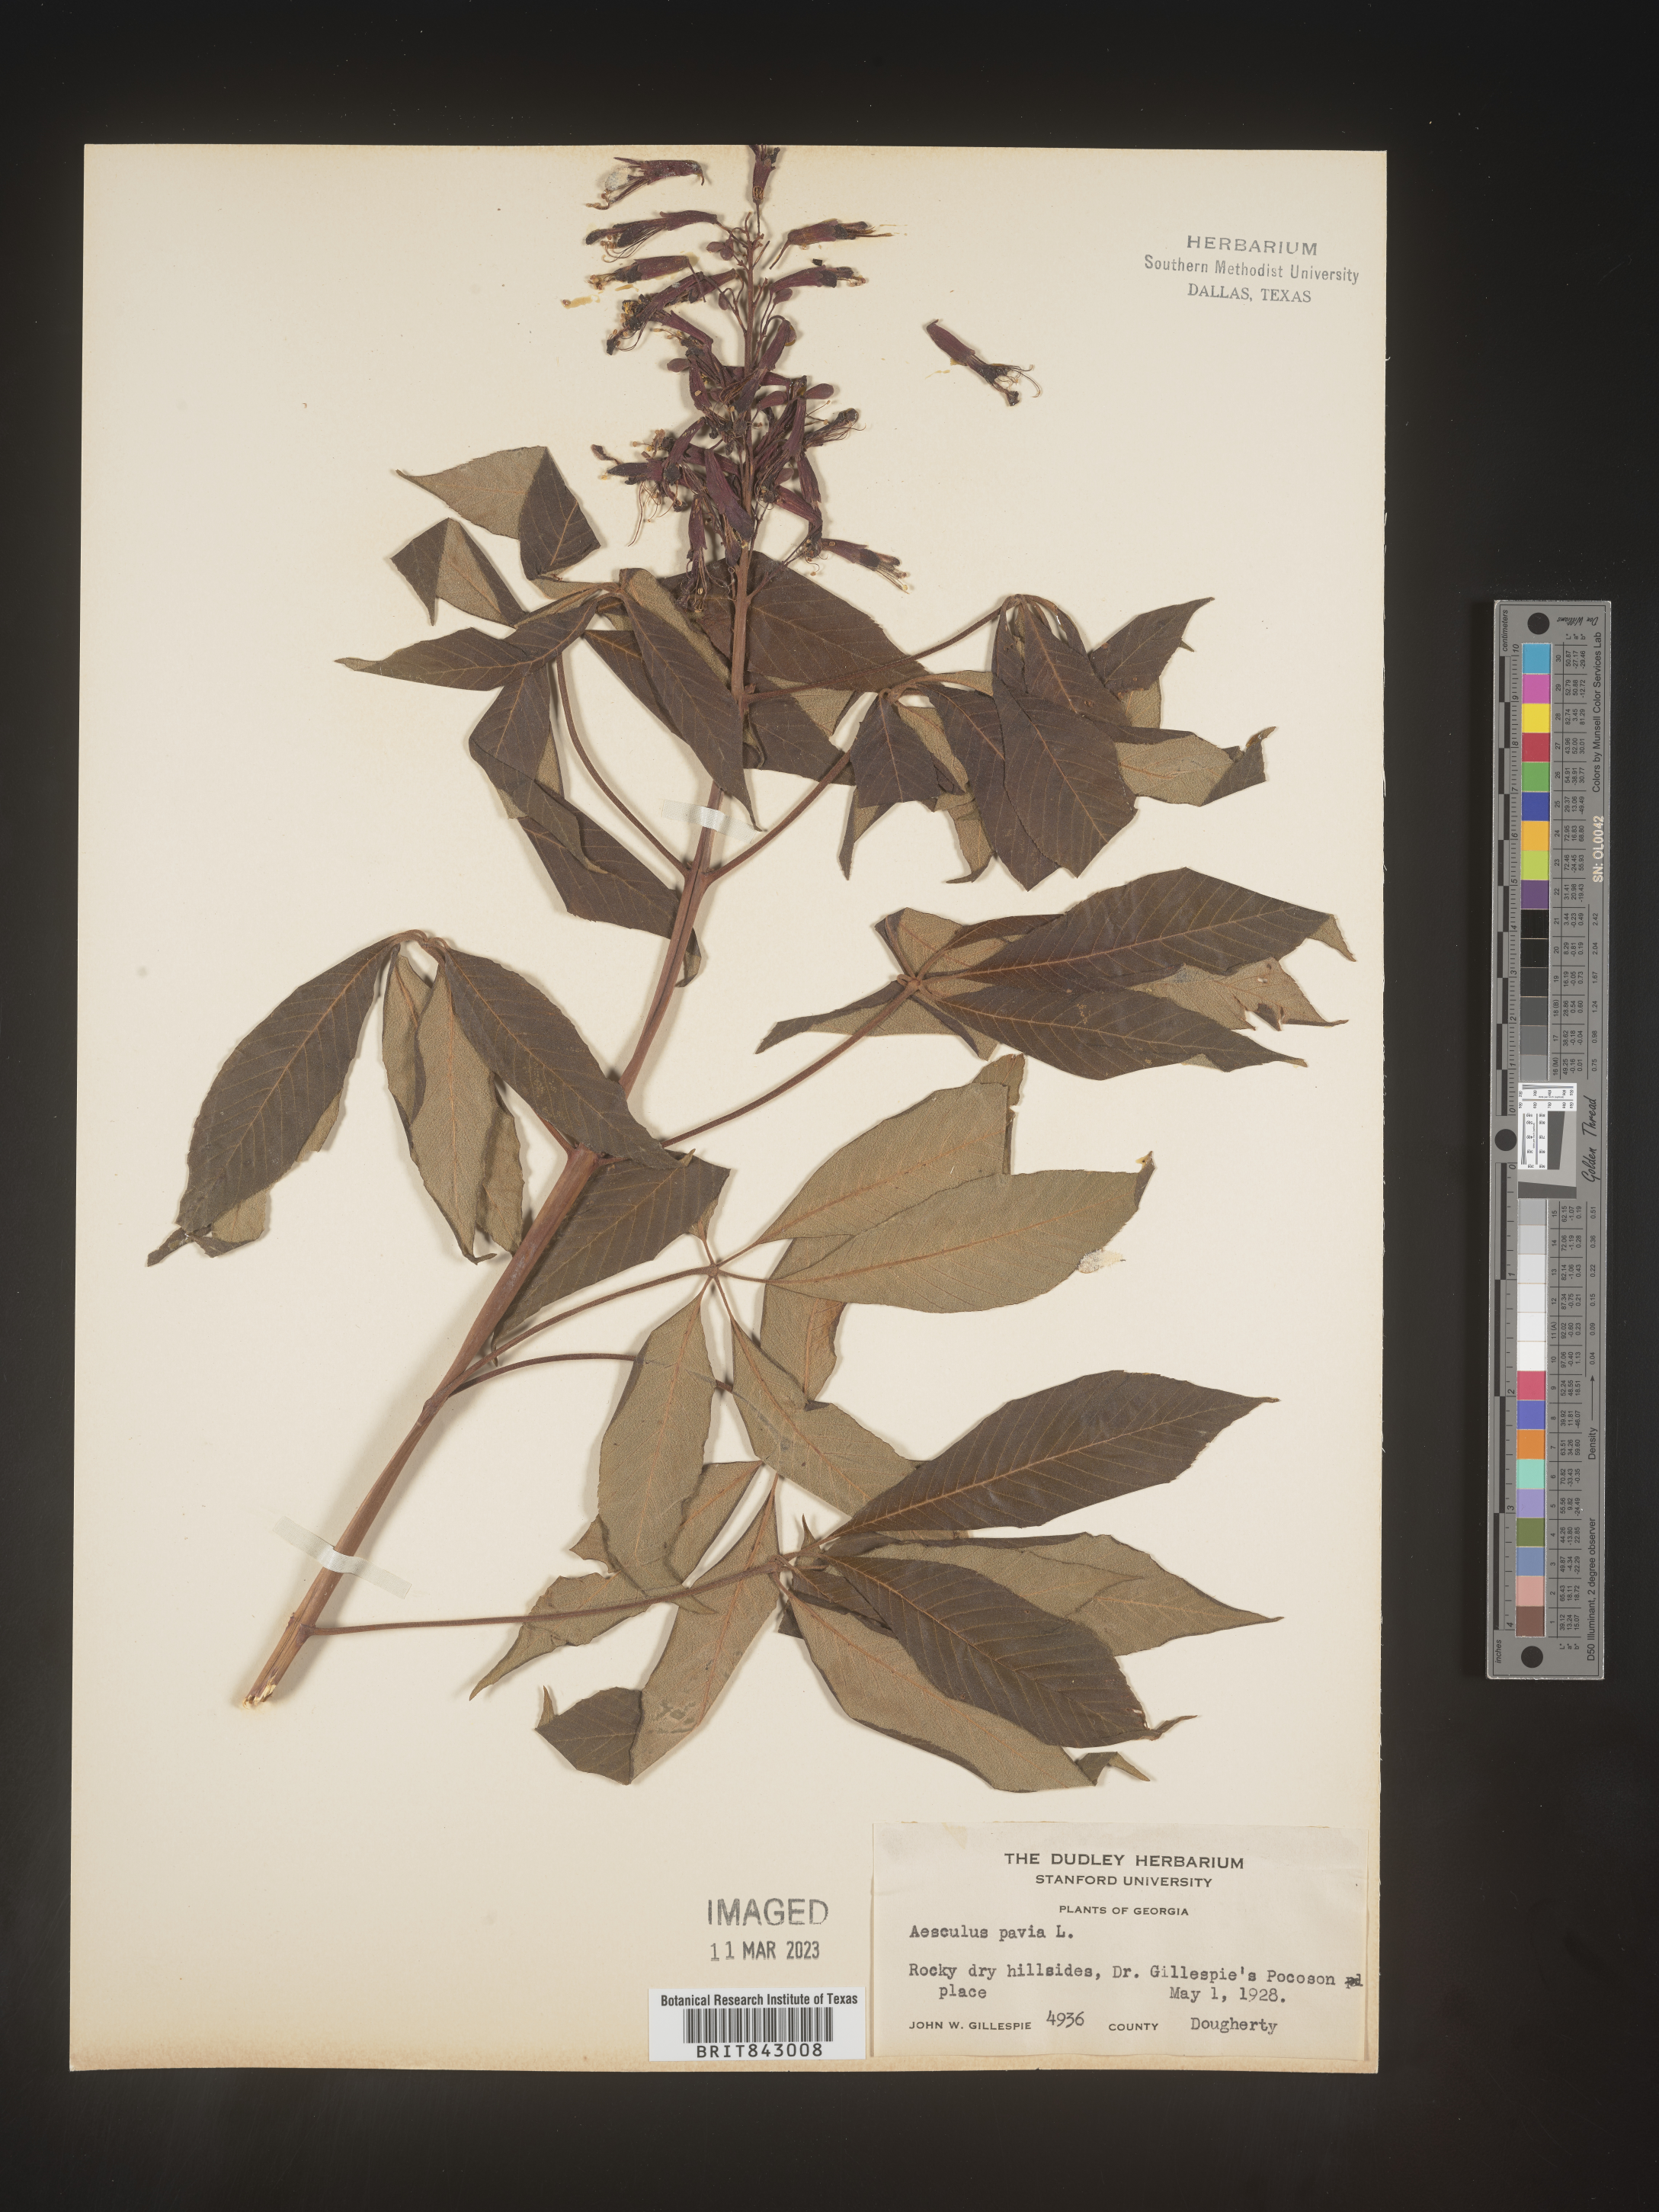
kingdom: Plantae
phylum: Tracheophyta
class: Magnoliopsida
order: Sapindales
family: Sapindaceae
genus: Aesculus
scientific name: Aesculus pavia
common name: Red buckeye
